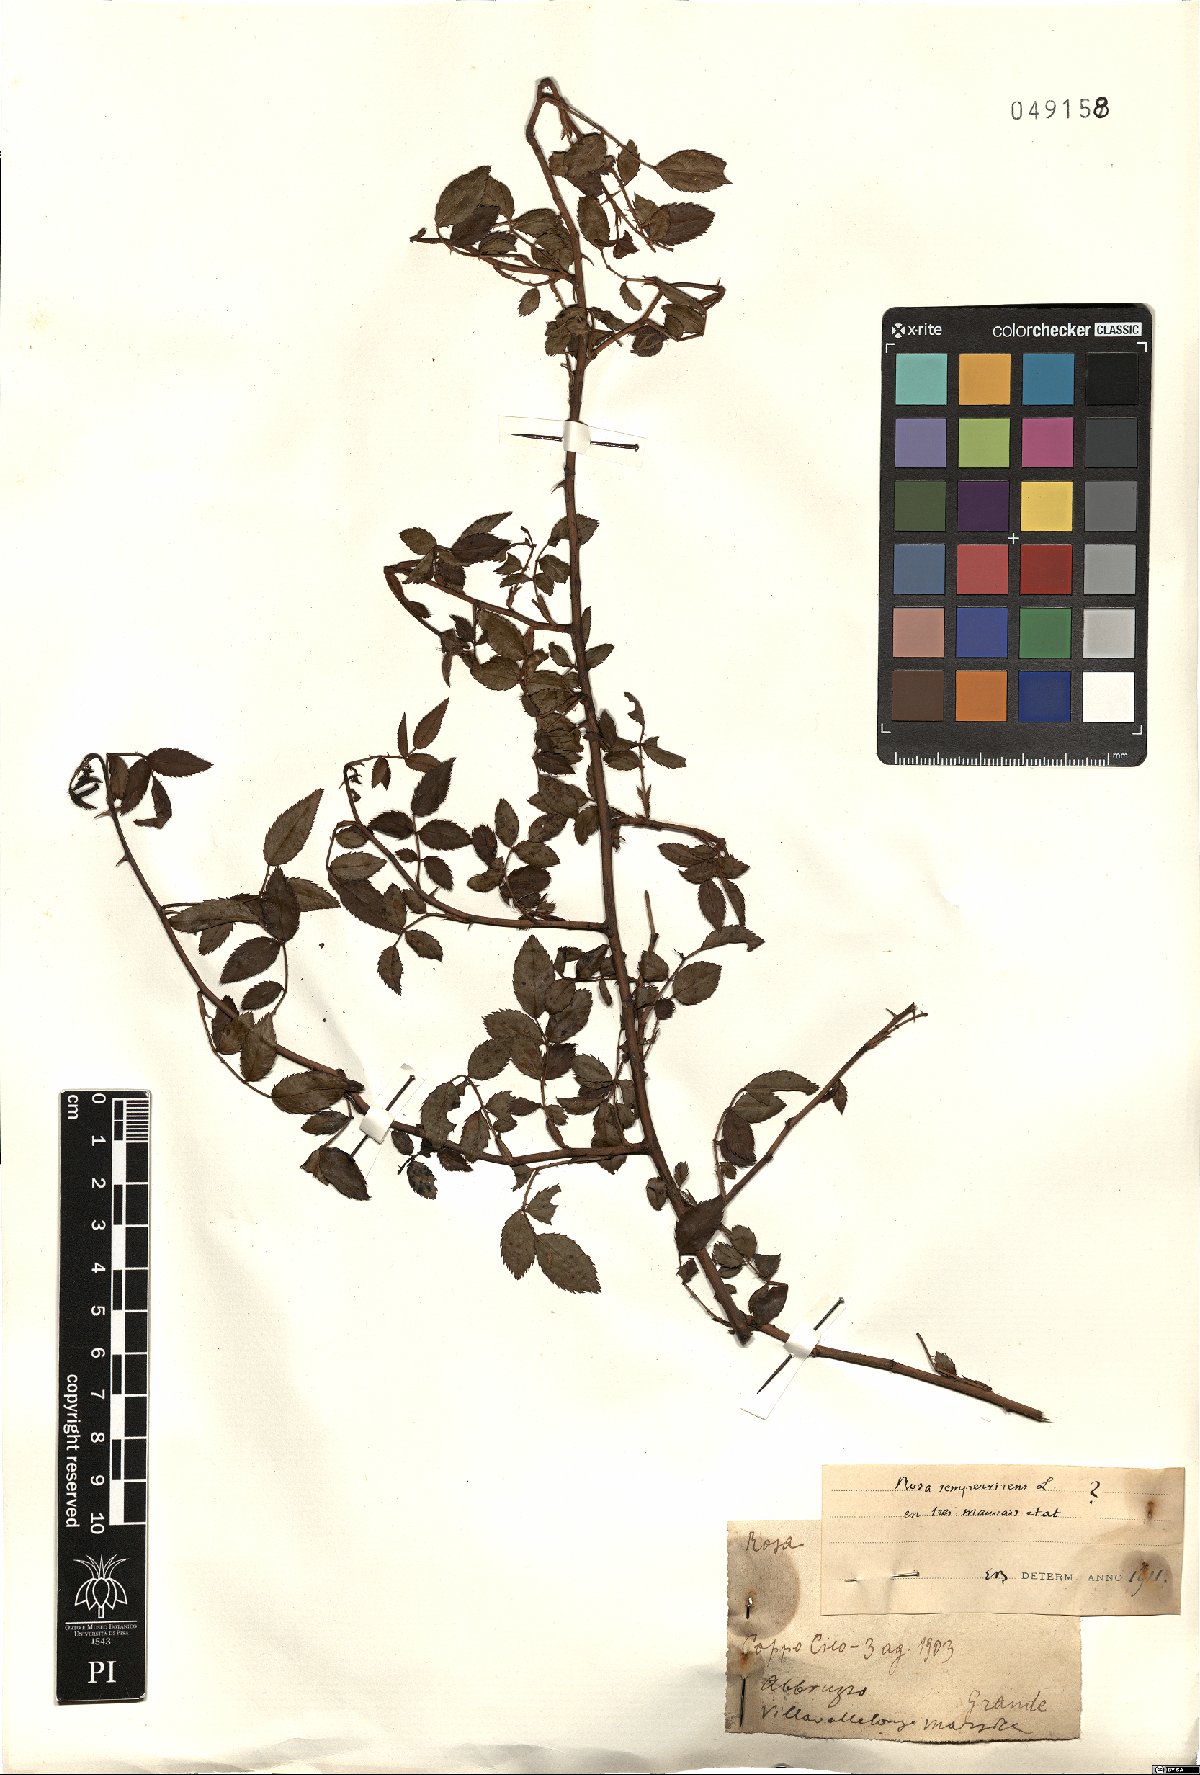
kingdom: Plantae
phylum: Tracheophyta
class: Magnoliopsida
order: Rosales
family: Rosaceae
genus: Rosa
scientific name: Rosa sempervirens
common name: Evergreen rose
